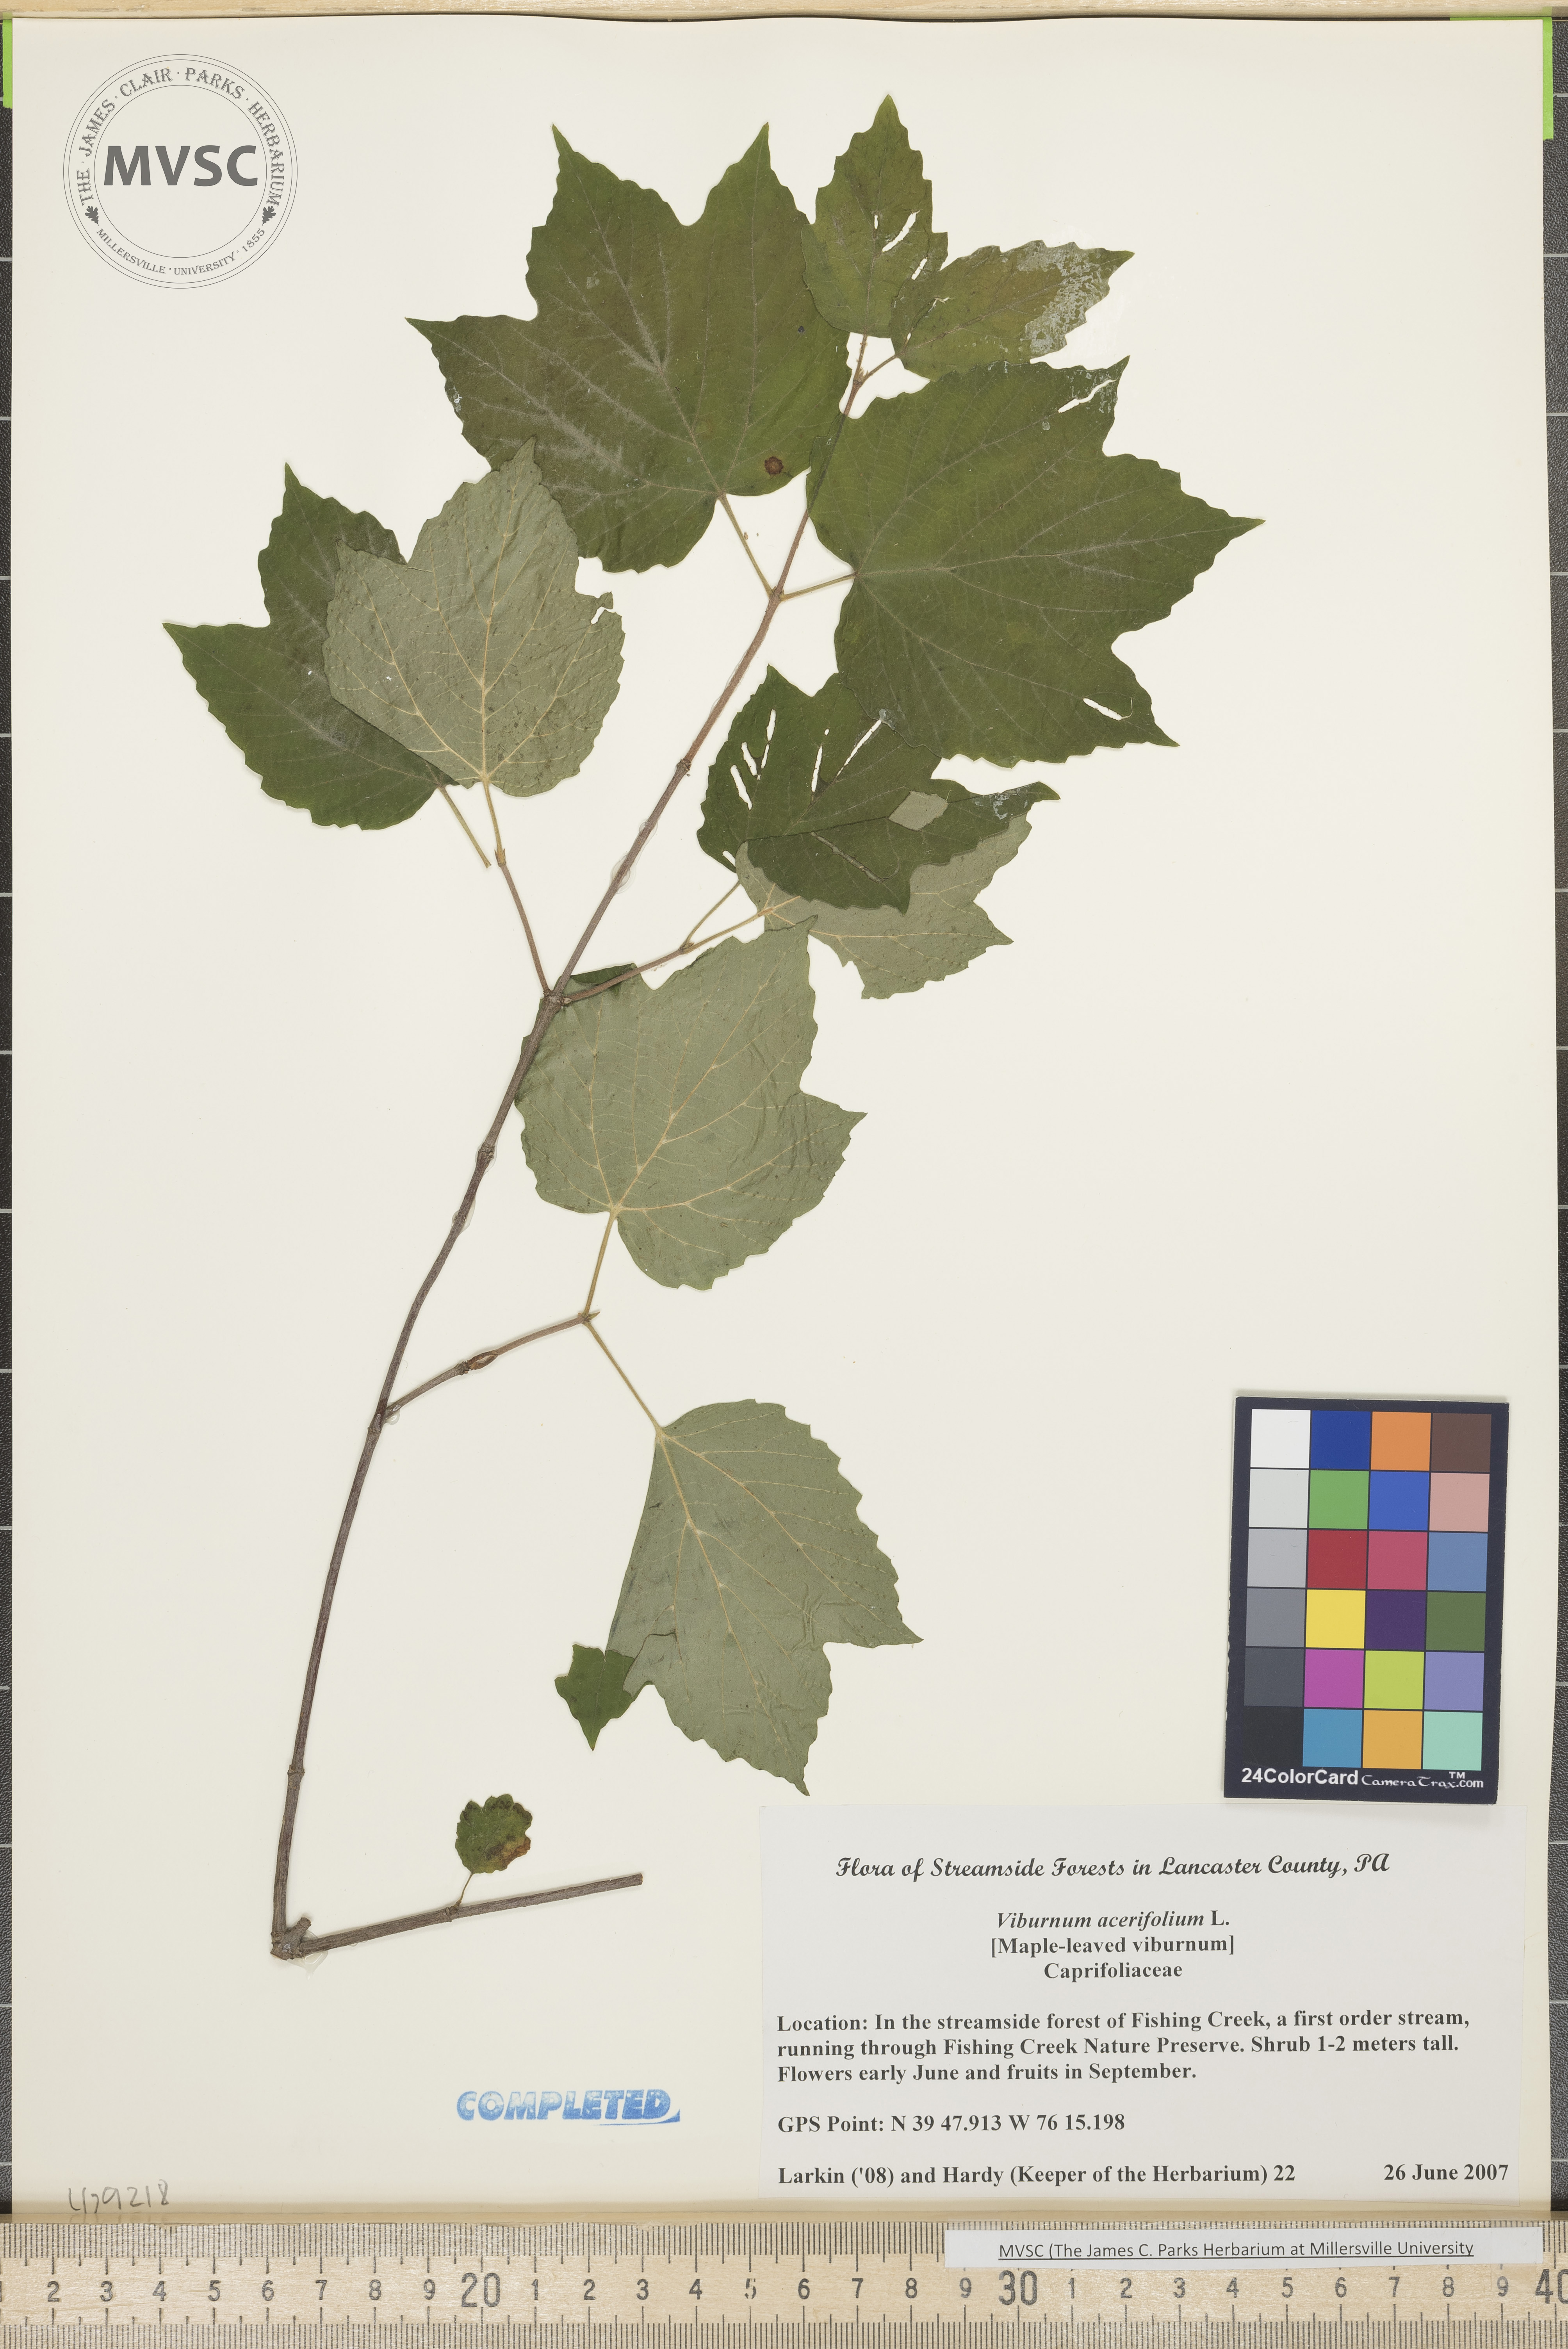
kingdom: Plantae
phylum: Tracheophyta
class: Magnoliopsida
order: Dipsacales
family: Viburnaceae
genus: Viburnum
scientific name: Viburnum acerifolium
